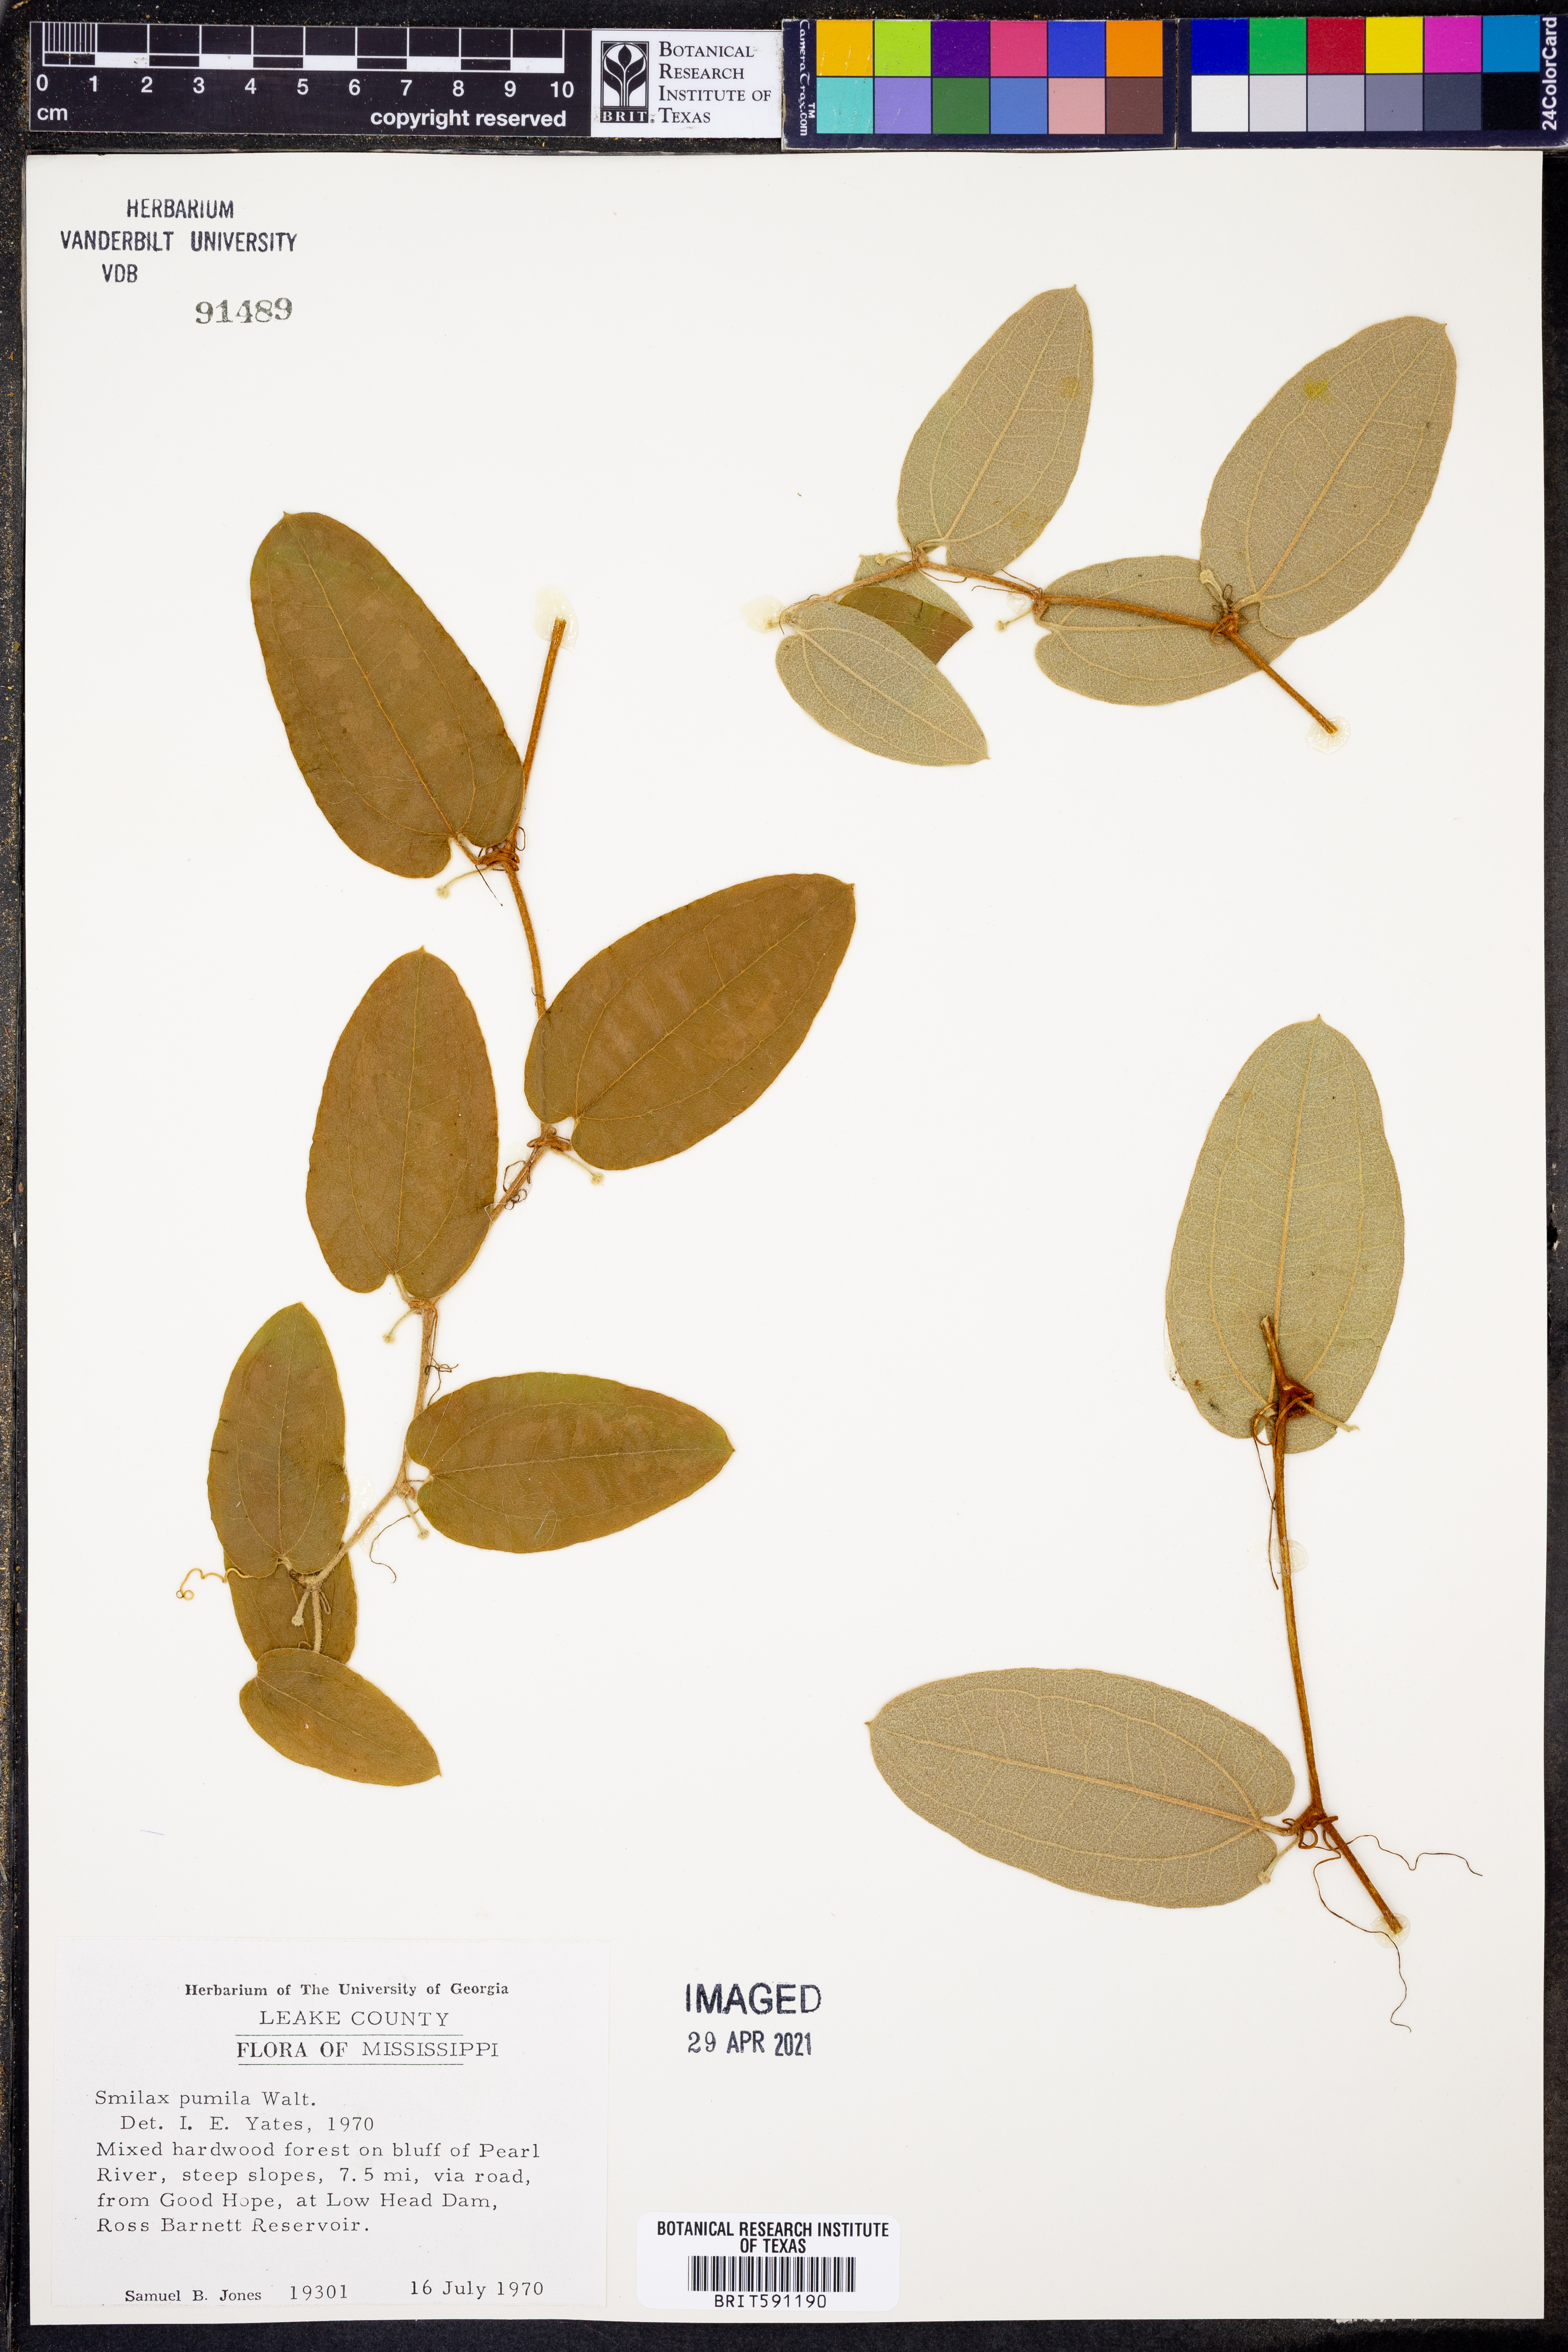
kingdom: Plantae
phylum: Tracheophyta
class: Liliopsida
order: Liliales
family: Smilacaceae
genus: Smilax
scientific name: Smilax pumila
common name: Sarsaparilla-vine
